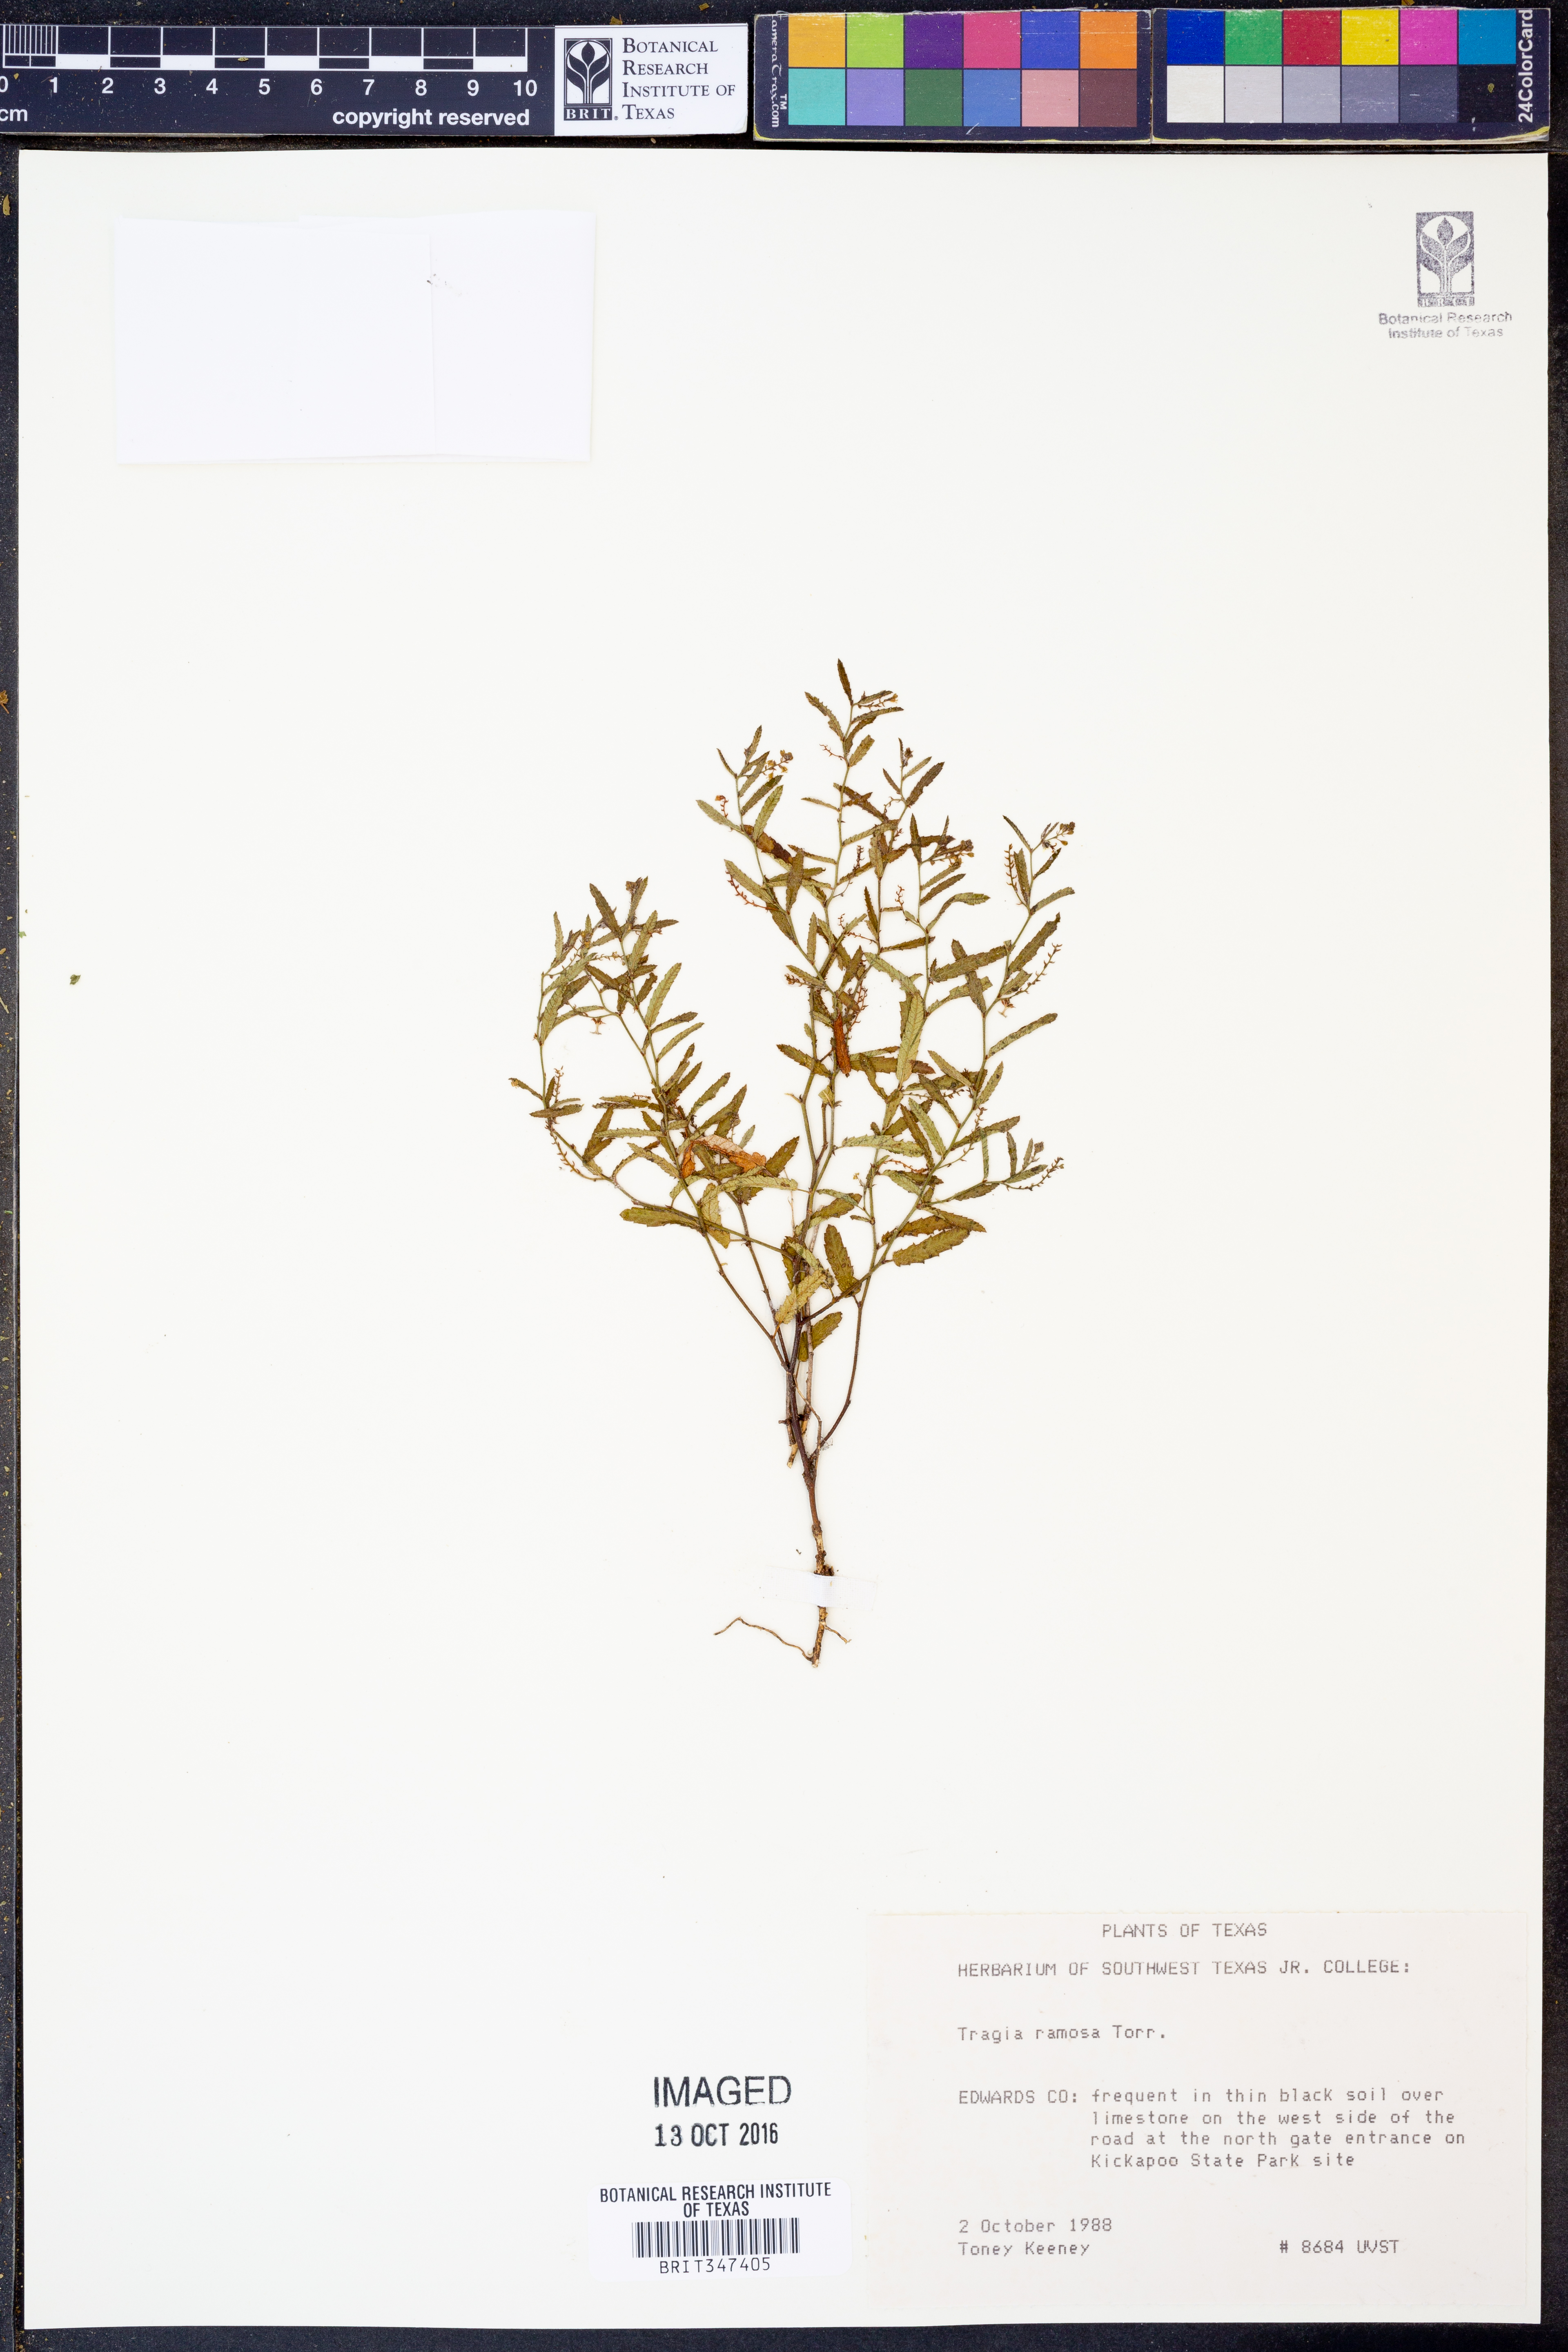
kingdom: Plantae
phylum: Tracheophyta
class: Magnoliopsida
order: Malpighiales
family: Euphorbiaceae
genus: Tragia
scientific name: Tragia ramosa
